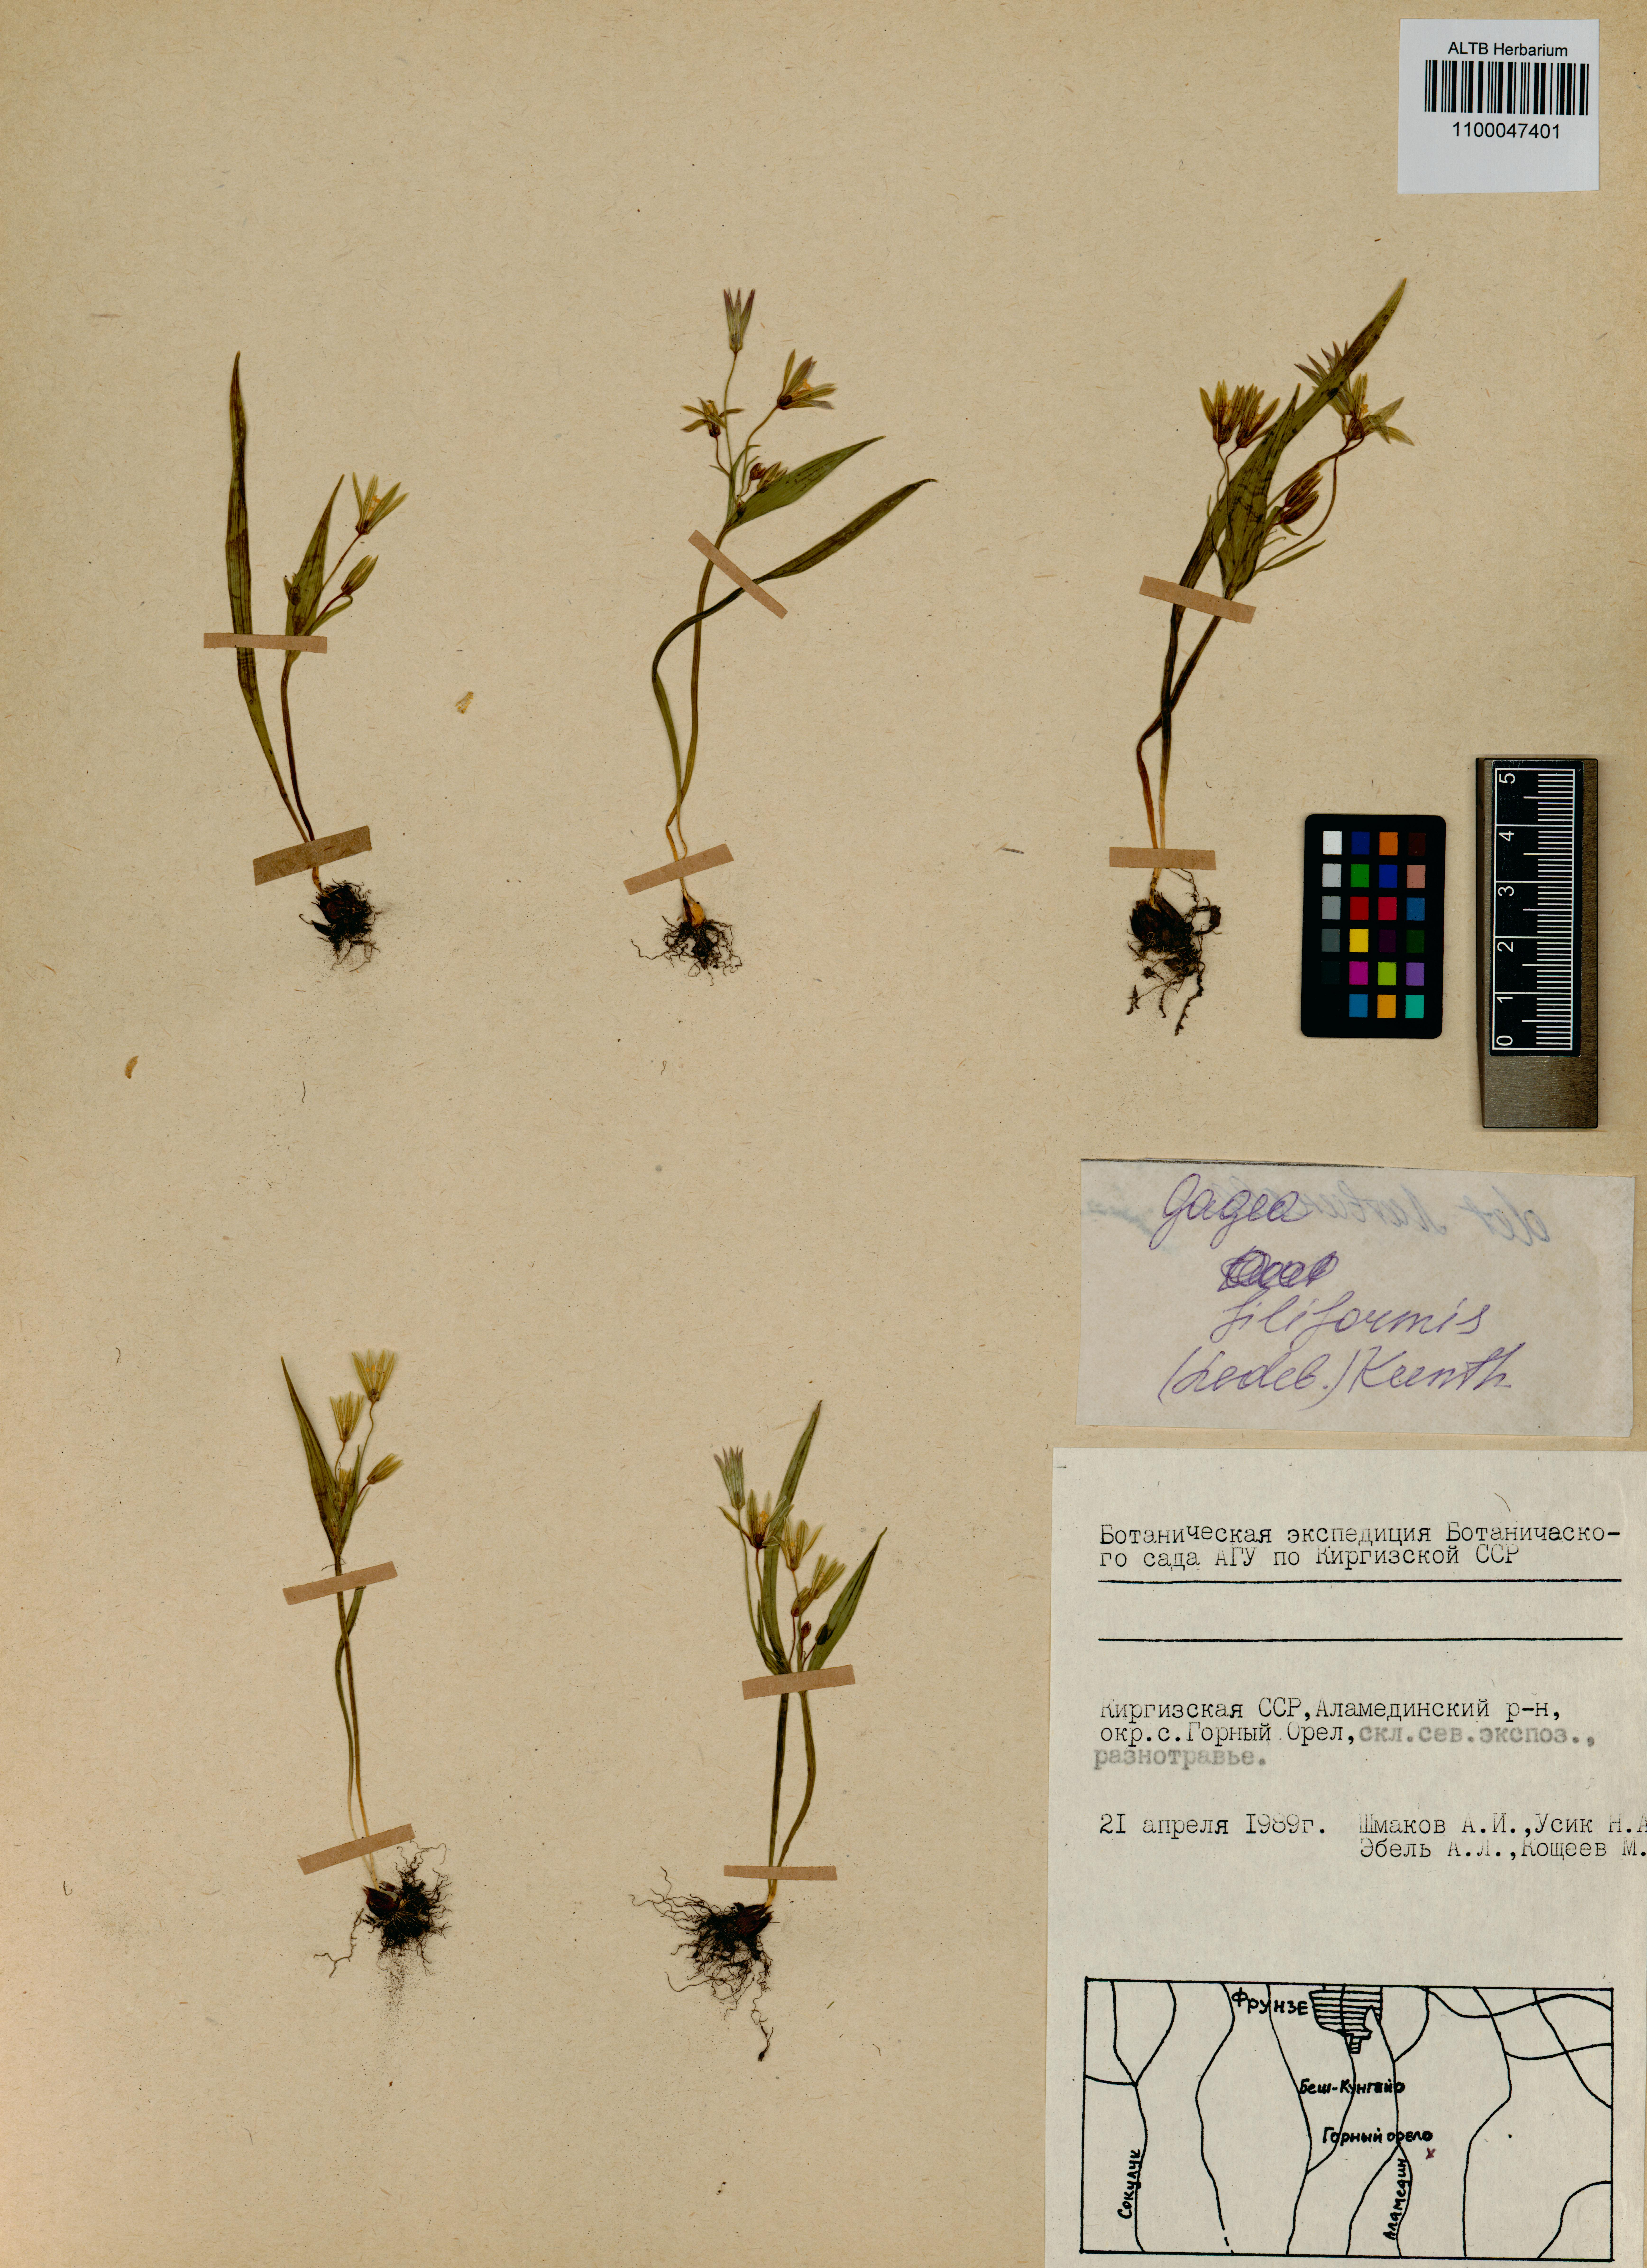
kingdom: Plantae
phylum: Tracheophyta
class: Liliopsida
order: Liliales
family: Liliaceae
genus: Gagea
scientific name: Gagea filiformis
